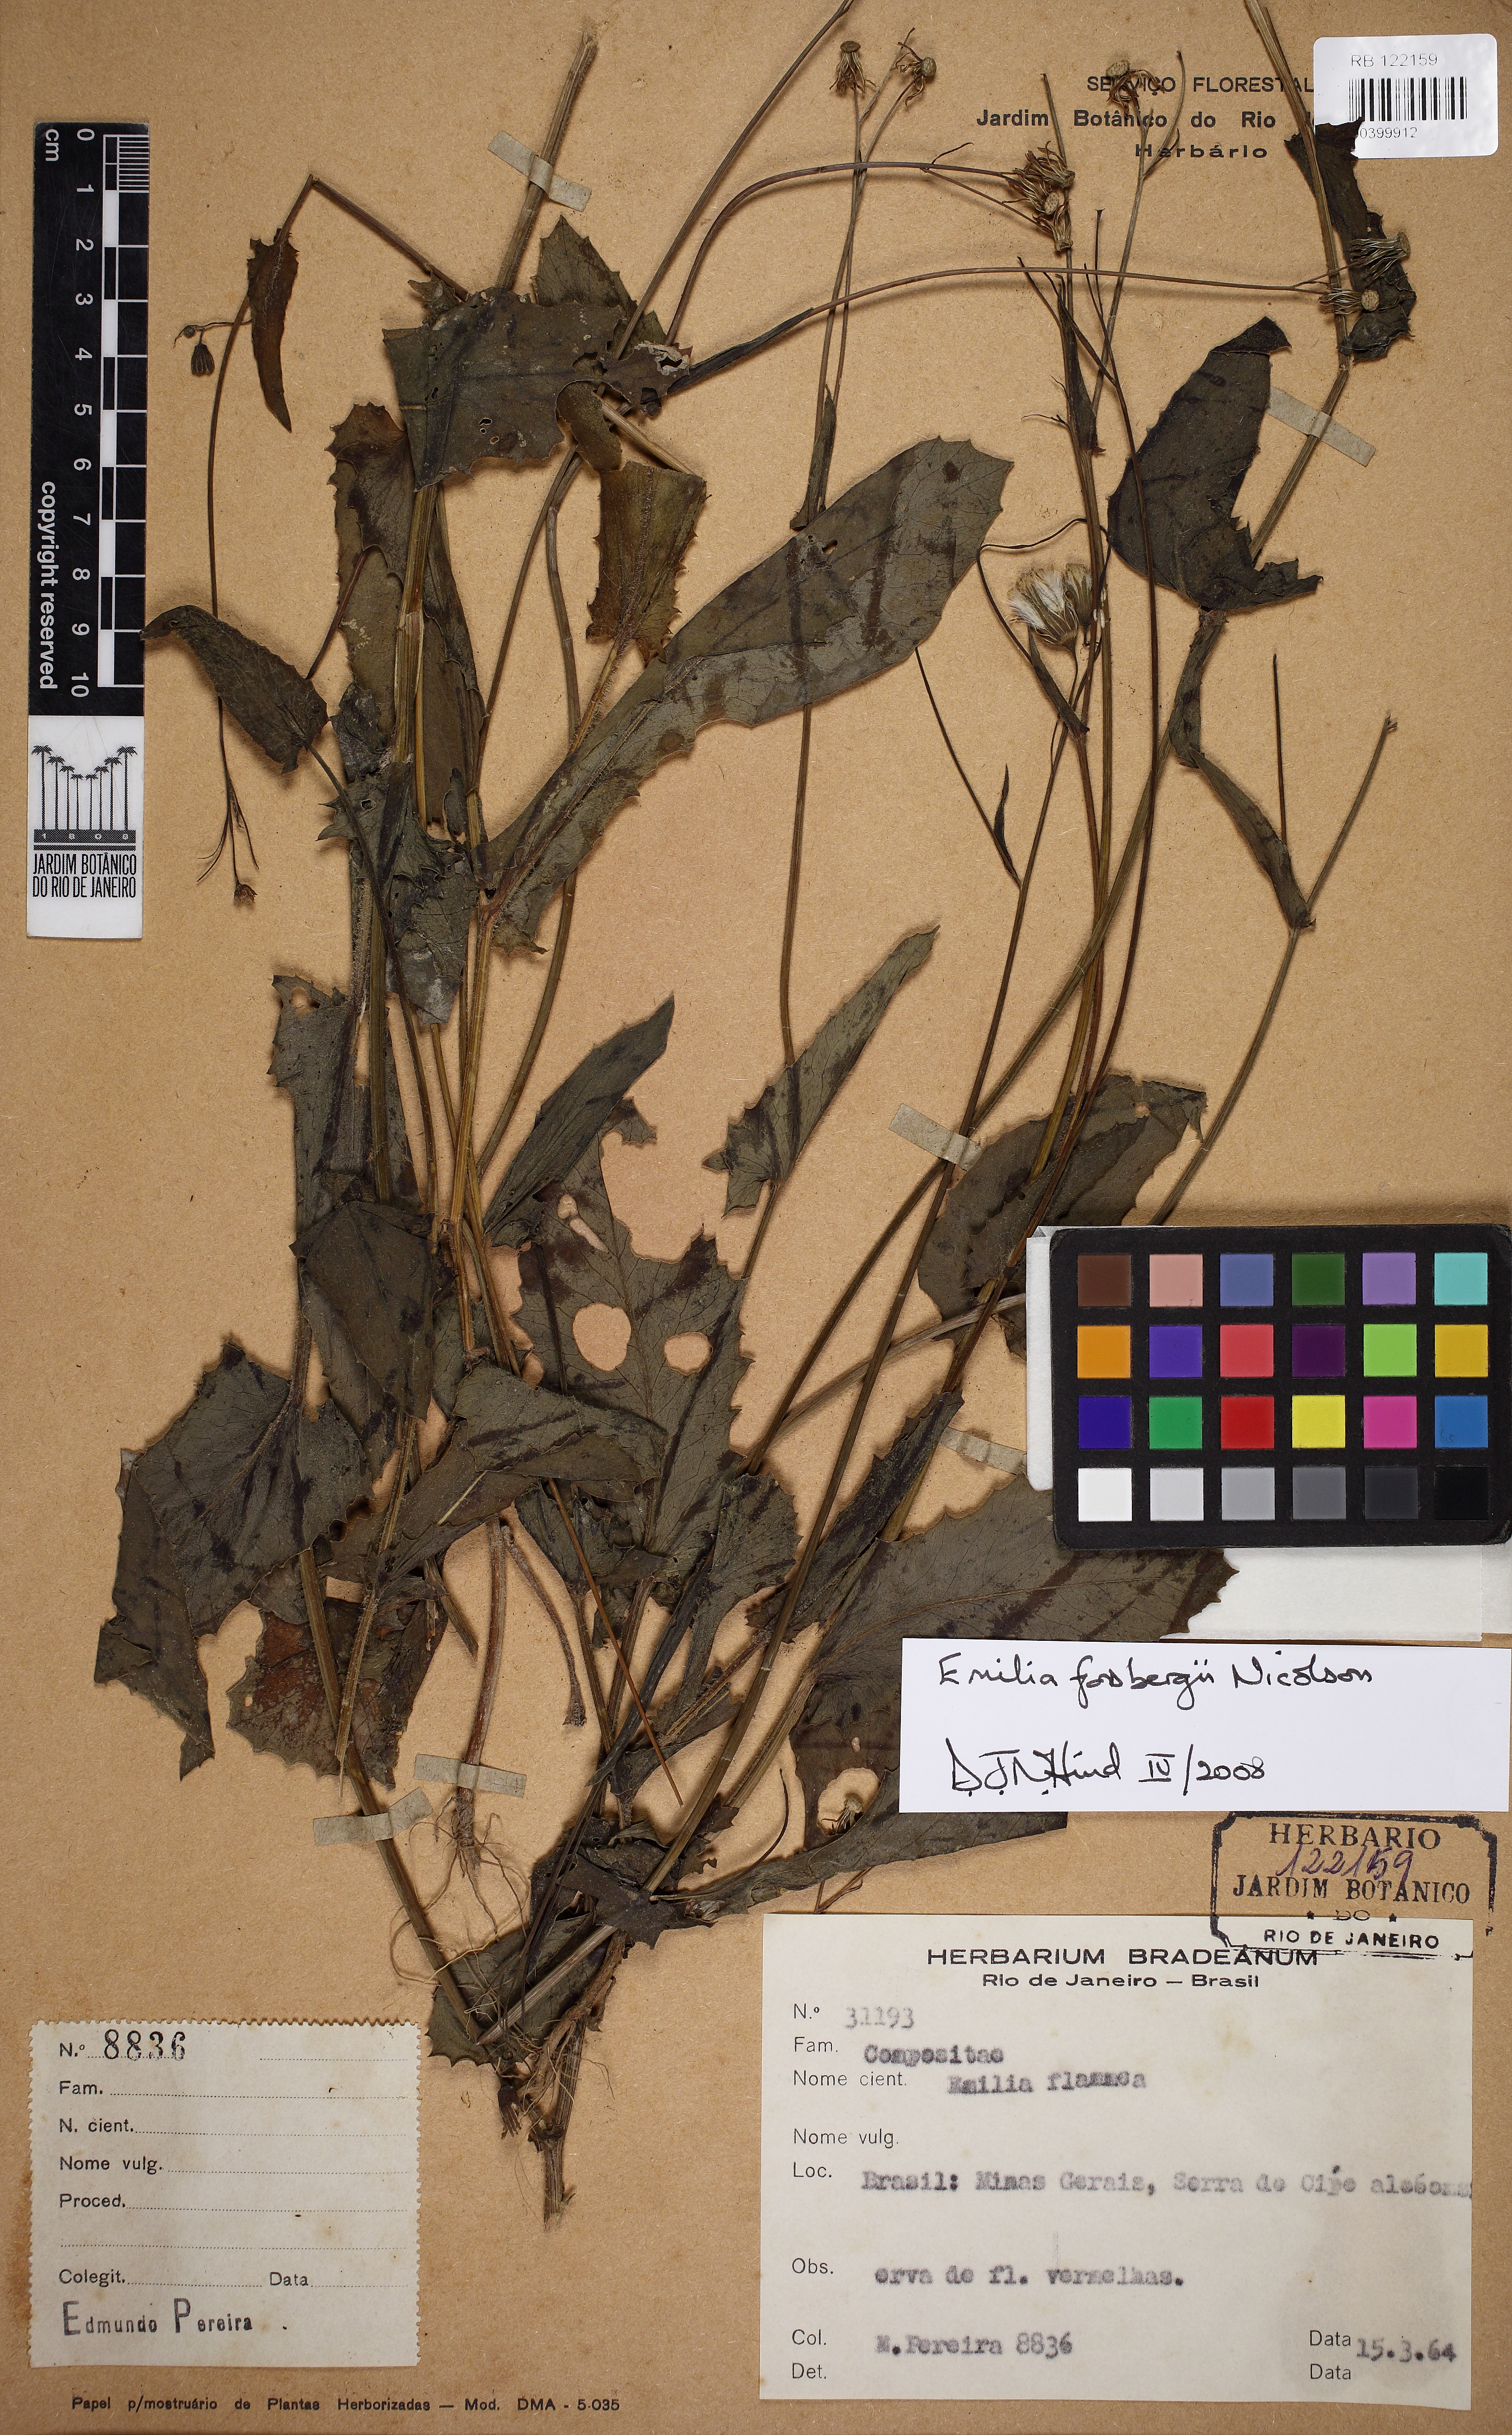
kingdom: Plantae
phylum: Tracheophyta
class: Magnoliopsida
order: Asterales
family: Asteraceae
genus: Emilia
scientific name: Emilia fosbergii
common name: Florida tasselflower
